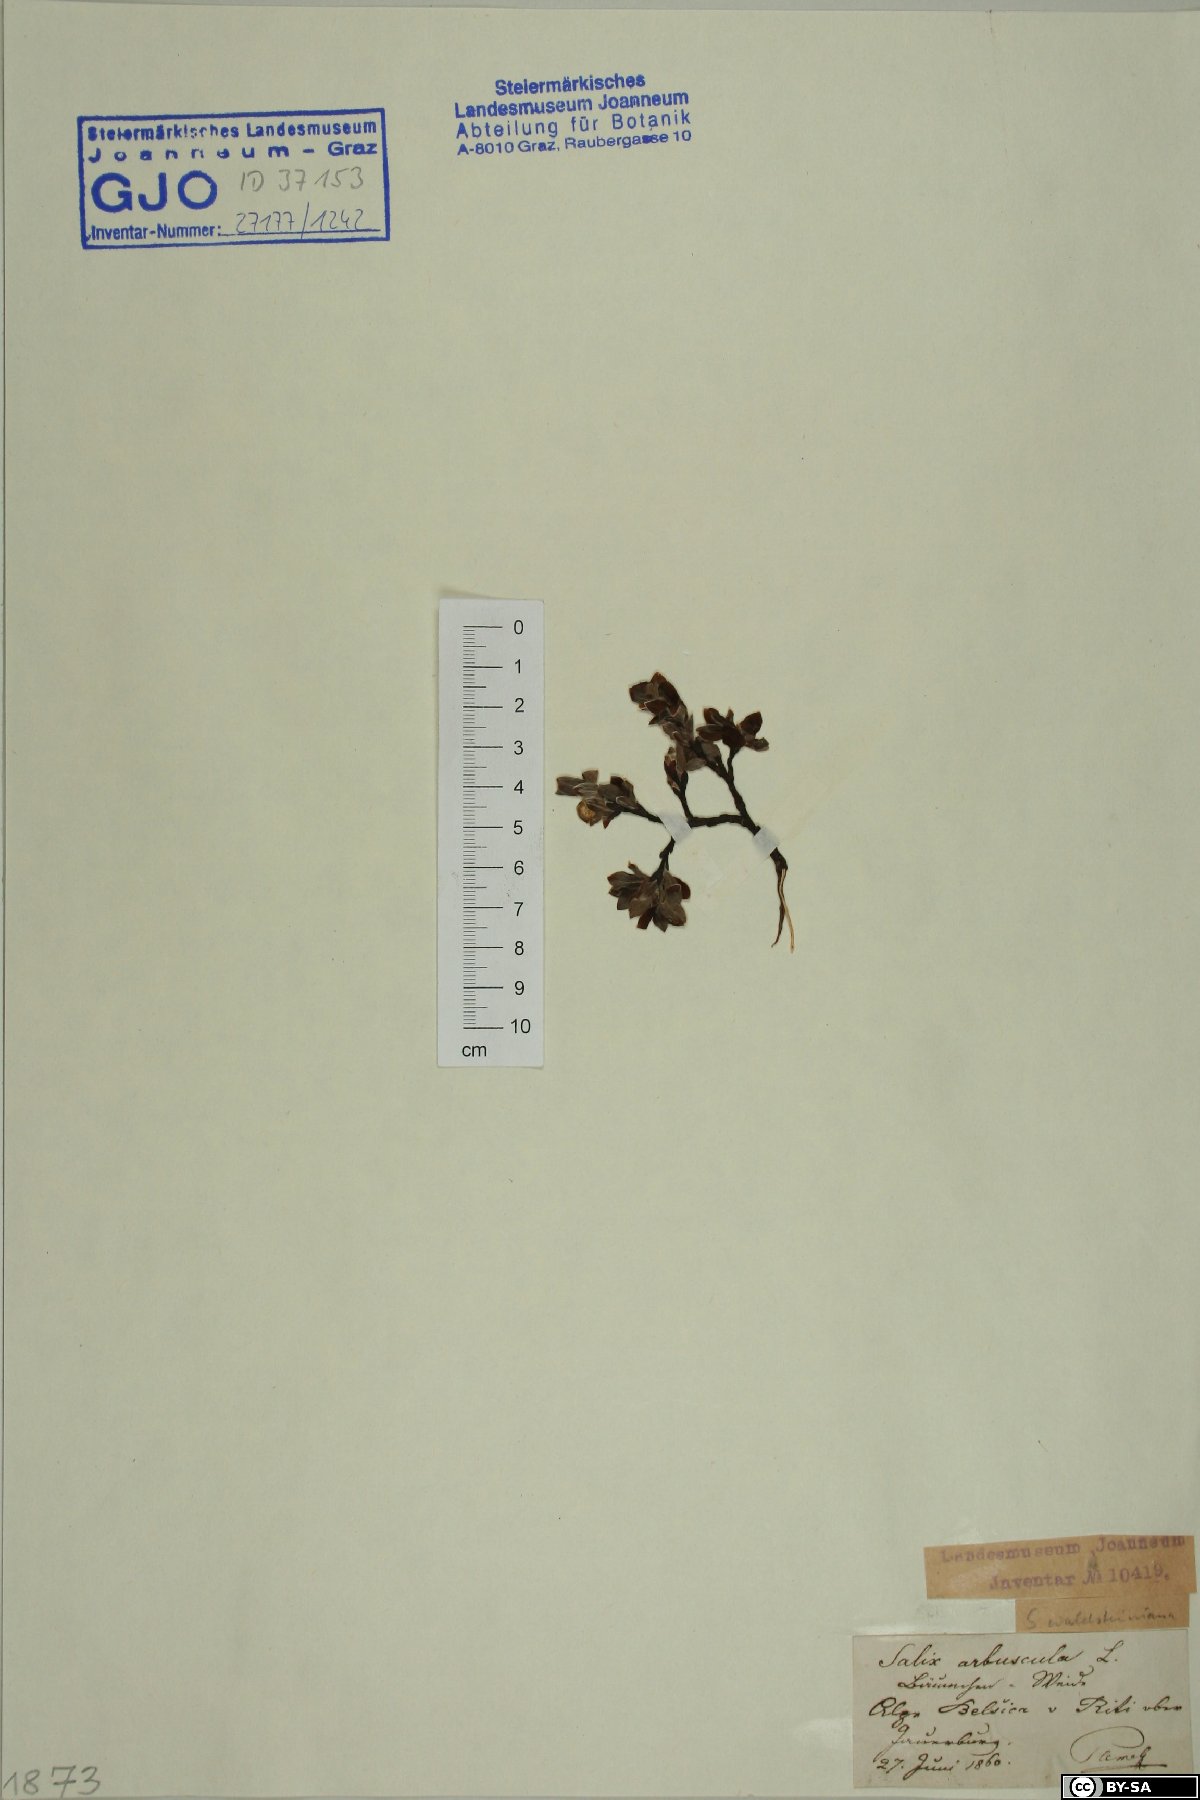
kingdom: Plantae
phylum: Tracheophyta
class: Magnoliopsida
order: Malpighiales
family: Salicaceae
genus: Salix
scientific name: Salix waldsteiniana
